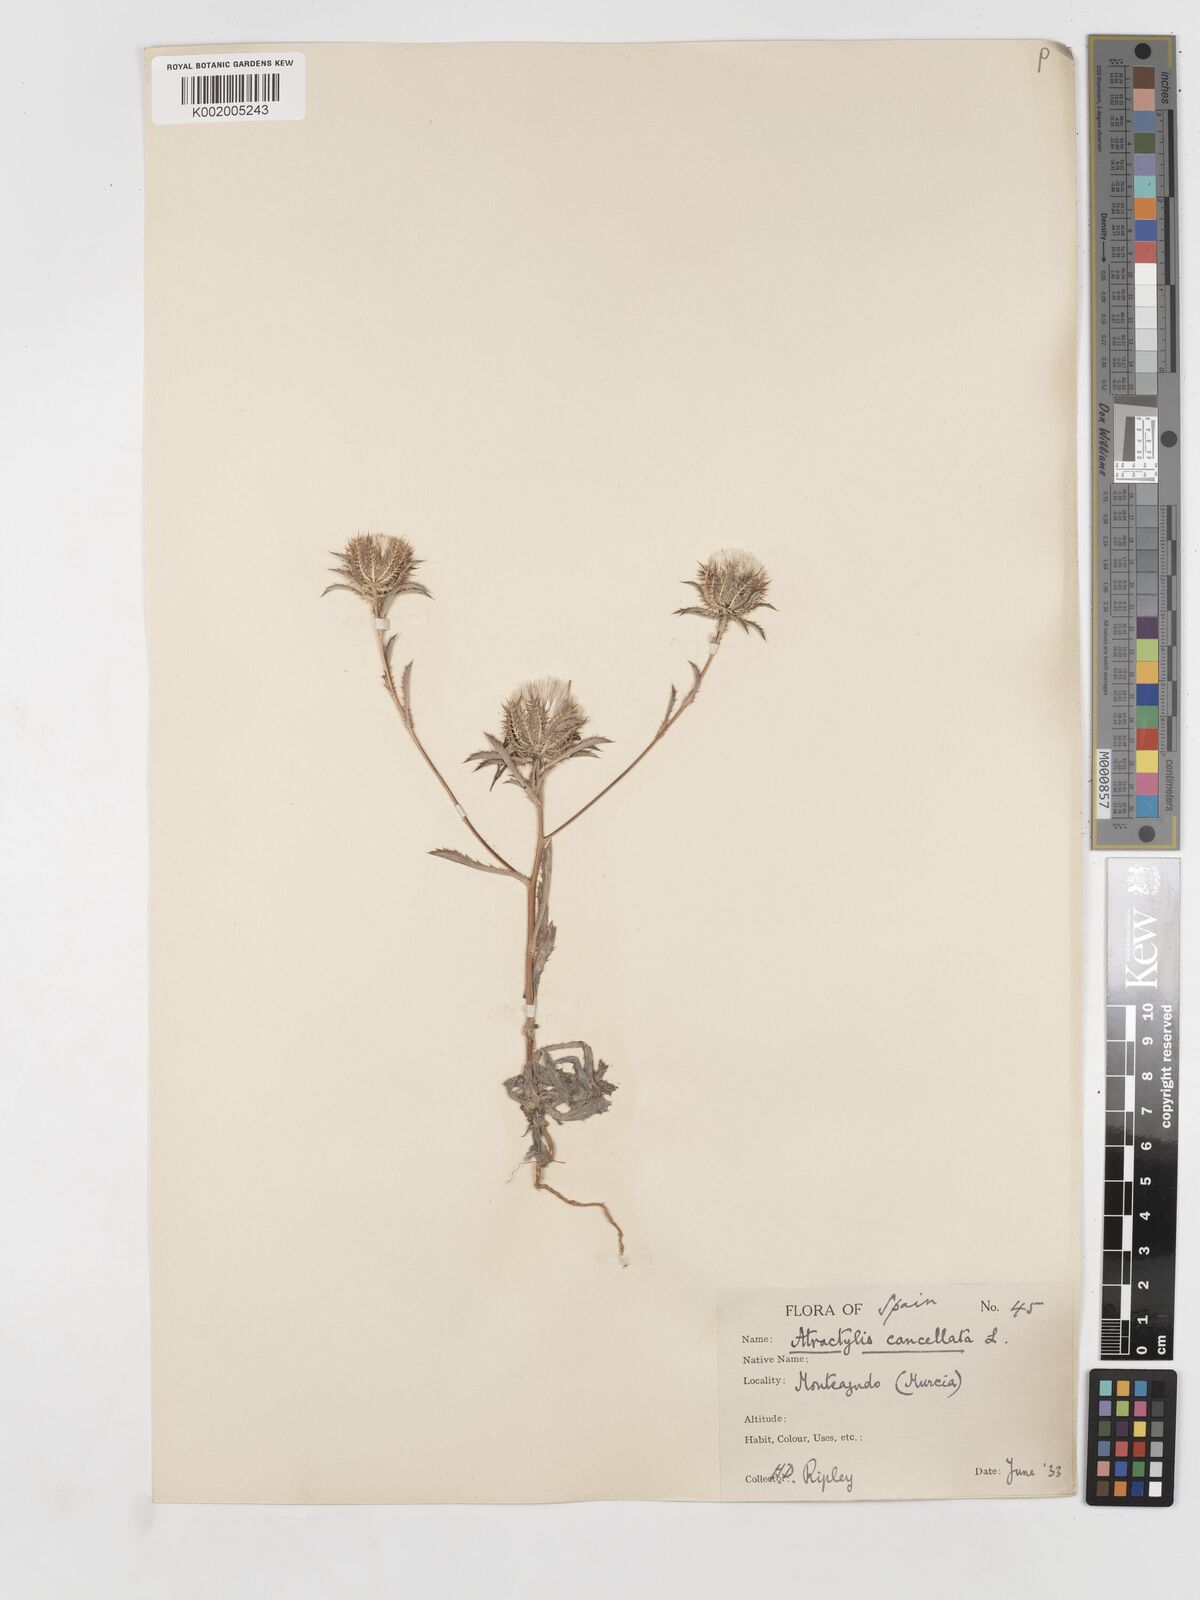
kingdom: Plantae
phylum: Tracheophyta
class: Magnoliopsida
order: Asterales
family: Asteraceae
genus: Atractylis
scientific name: Atractylis cancellata
